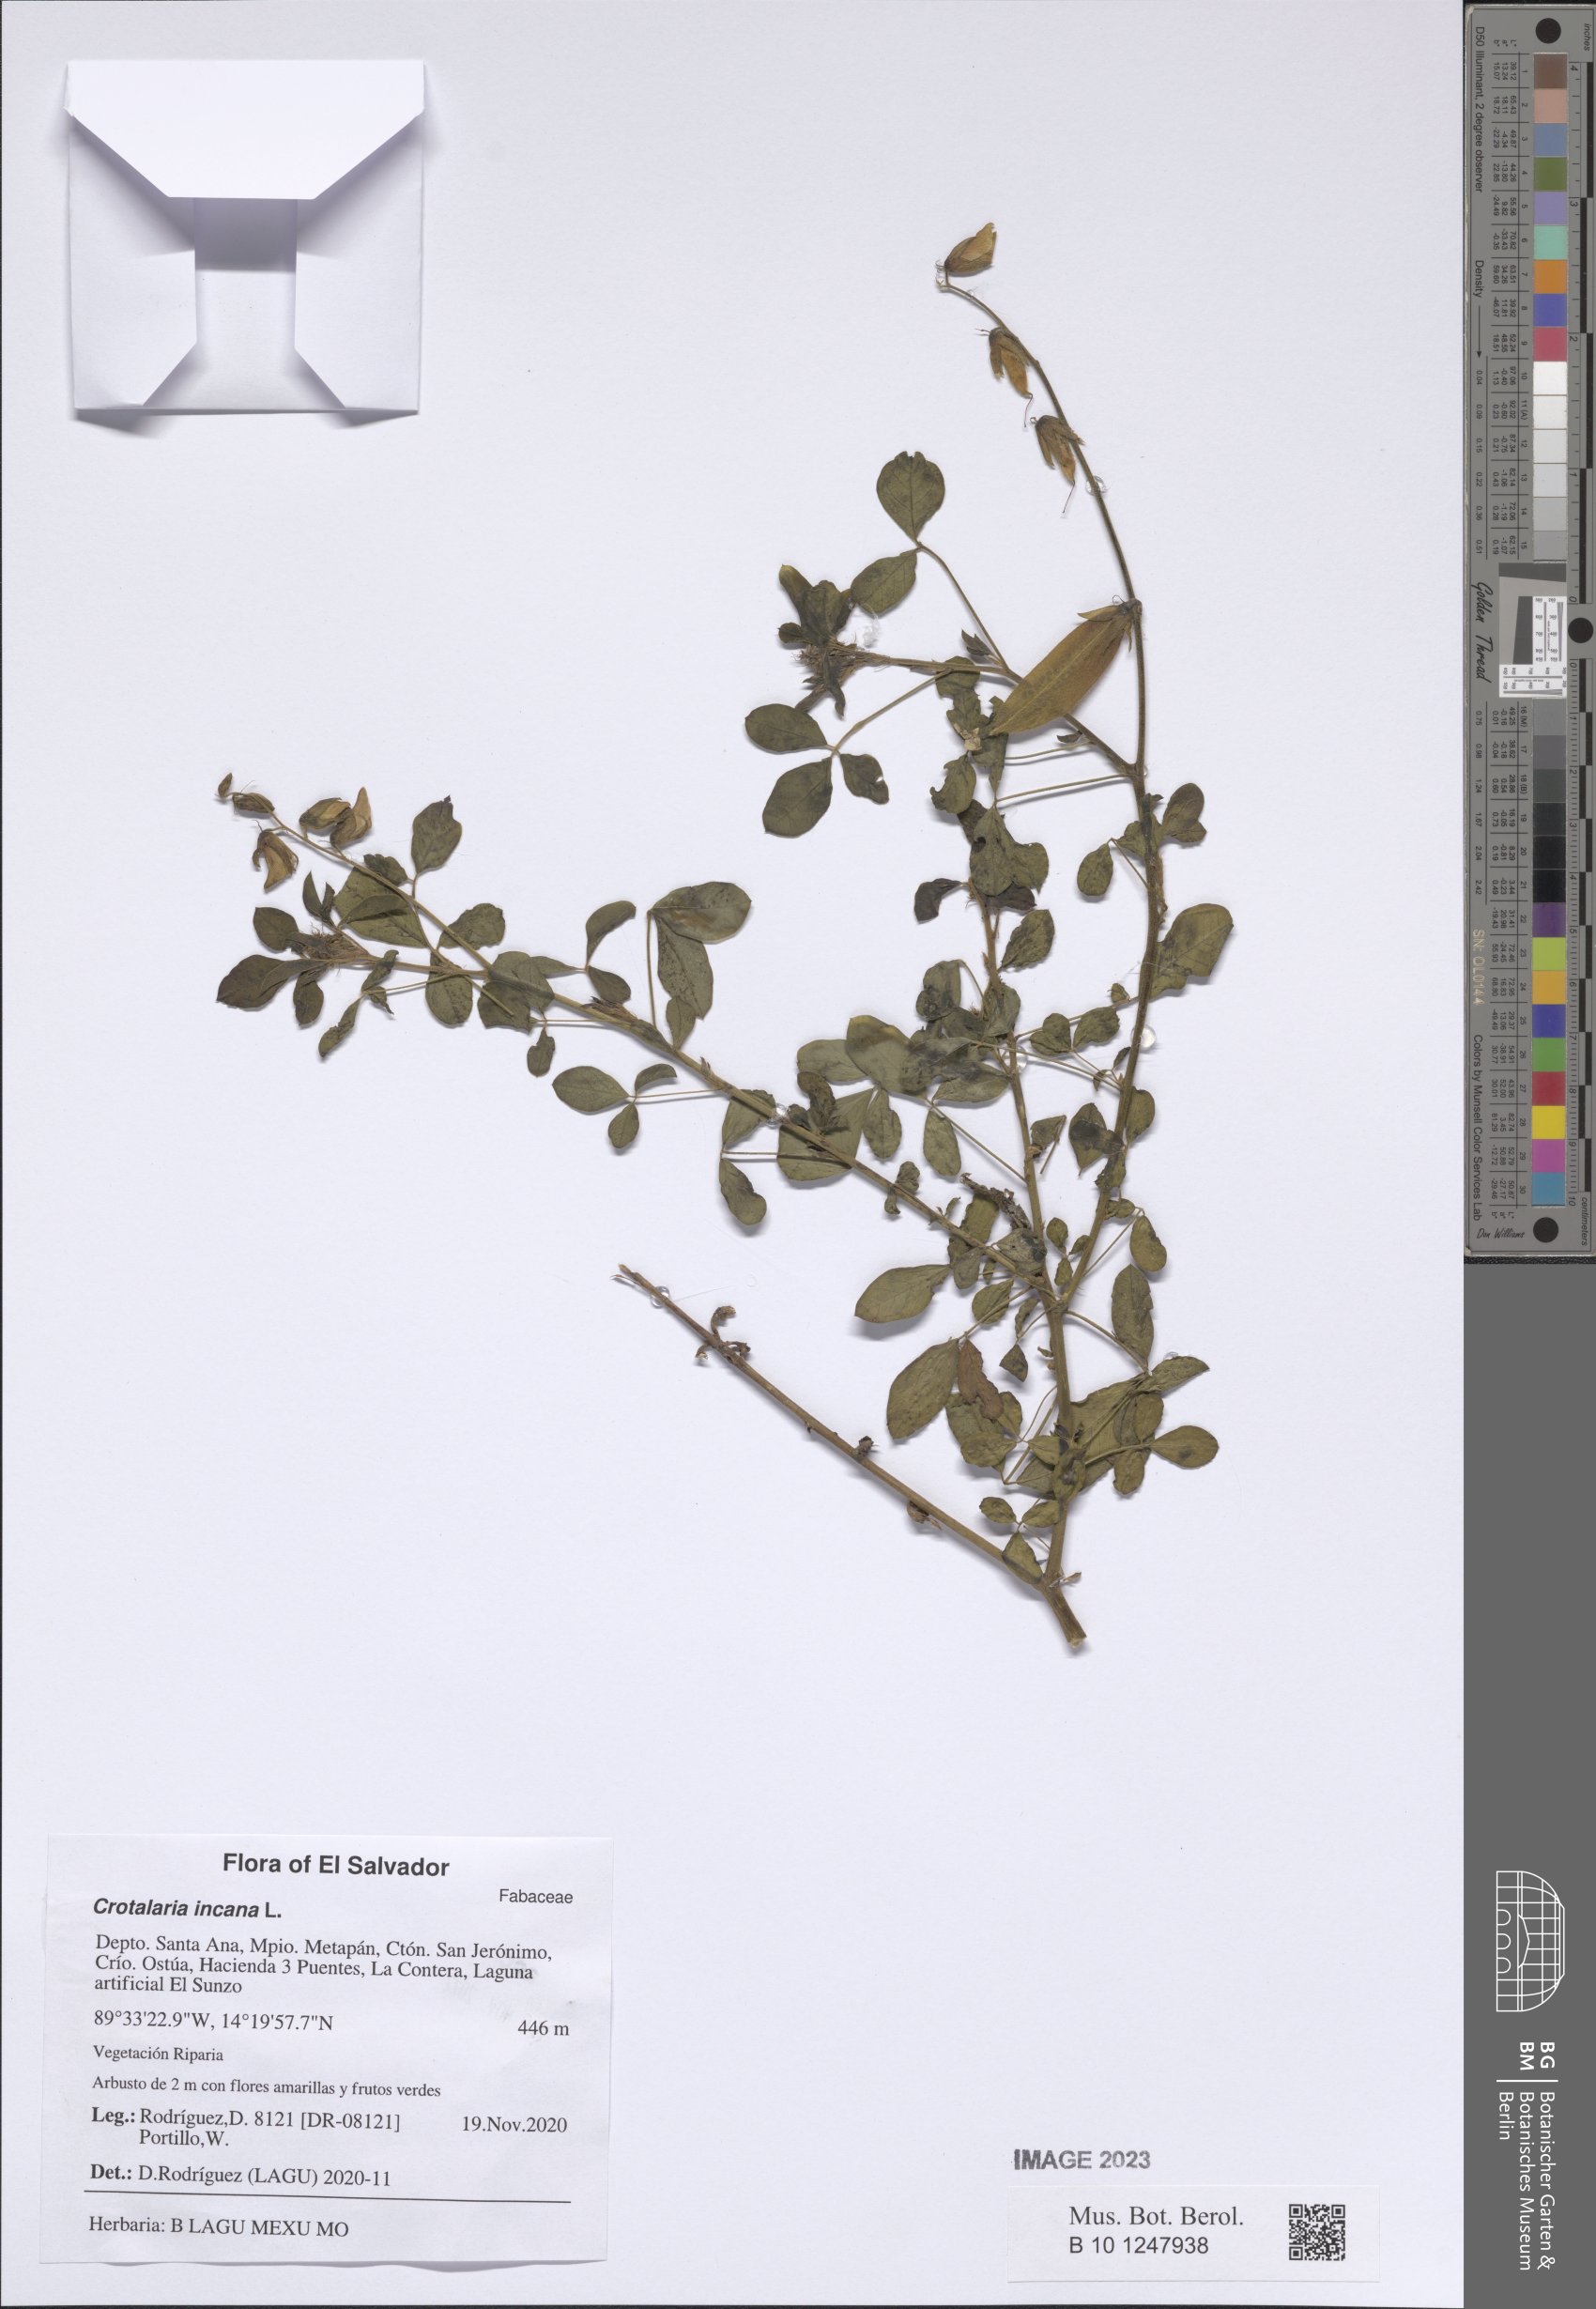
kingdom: Plantae
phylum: Tracheophyta
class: Magnoliopsida
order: Fabales
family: Fabaceae
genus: Crotalaria
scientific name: Crotalaria incana
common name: Shakeshake
